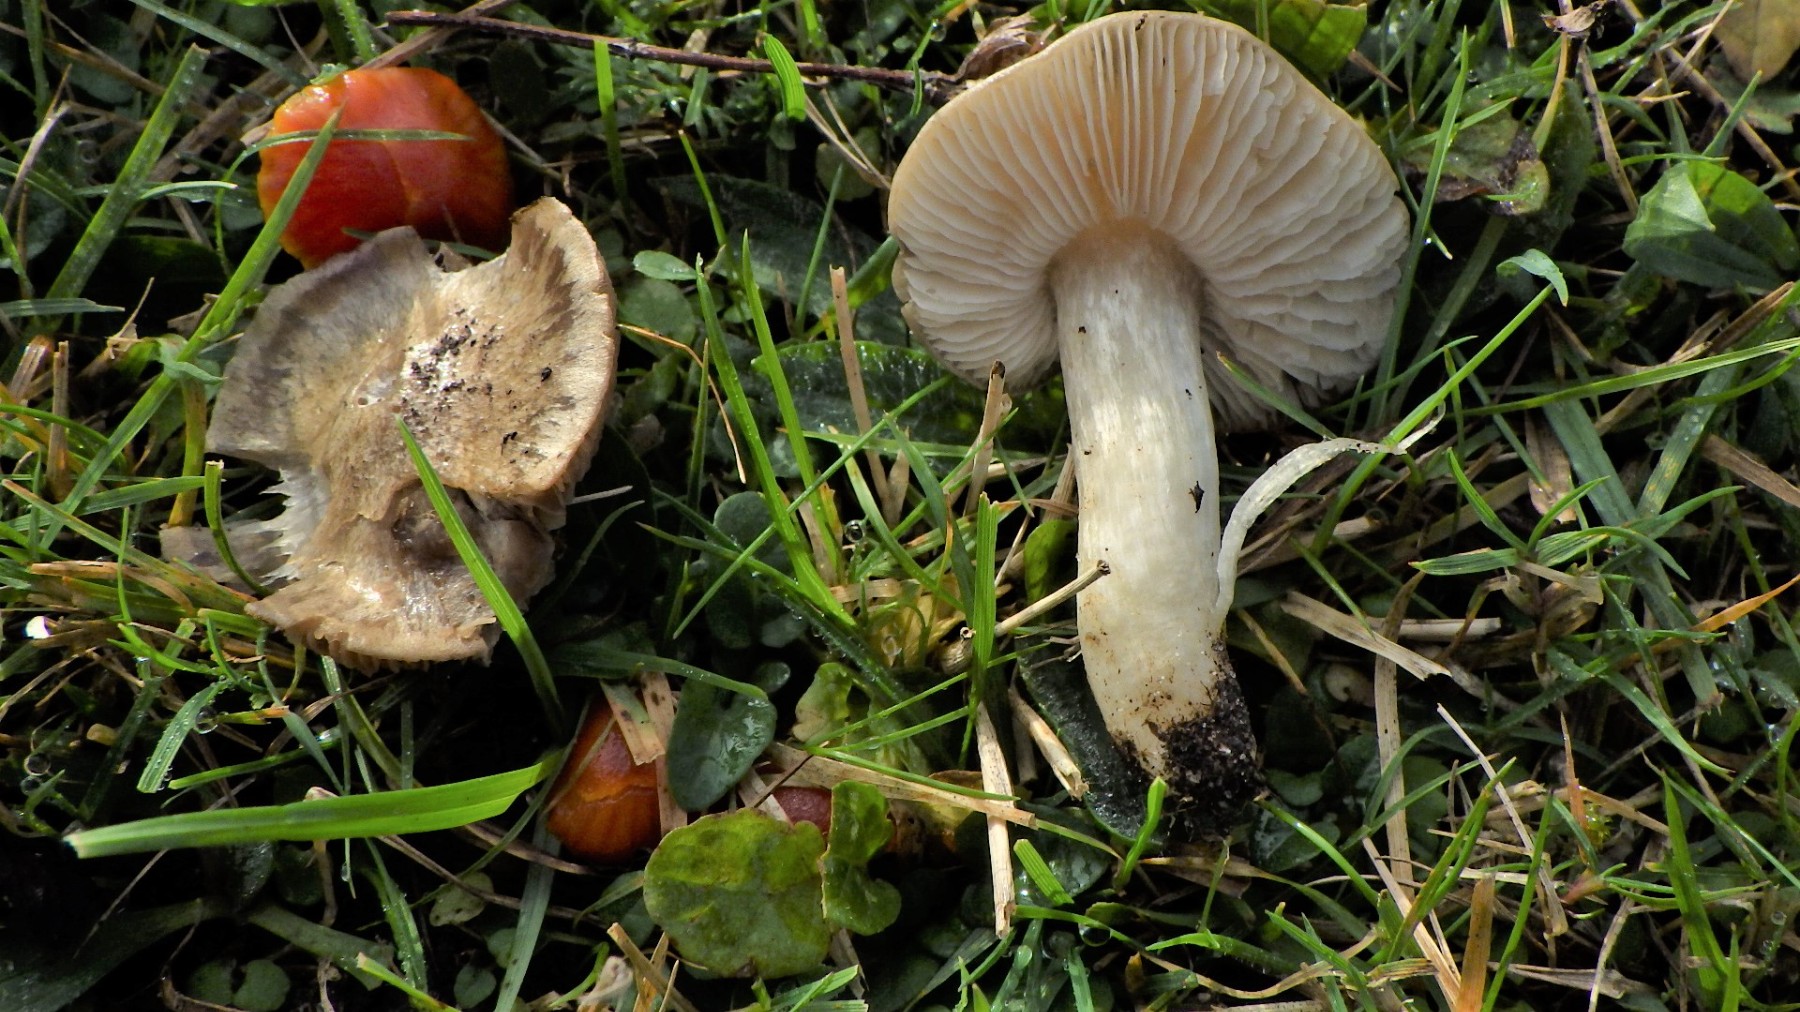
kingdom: Fungi
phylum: Basidiomycota
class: Agaricomycetes
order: Agaricales
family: Entolomataceae
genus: Entoloma
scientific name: Entoloma prunuloides
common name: mel-rødblad
